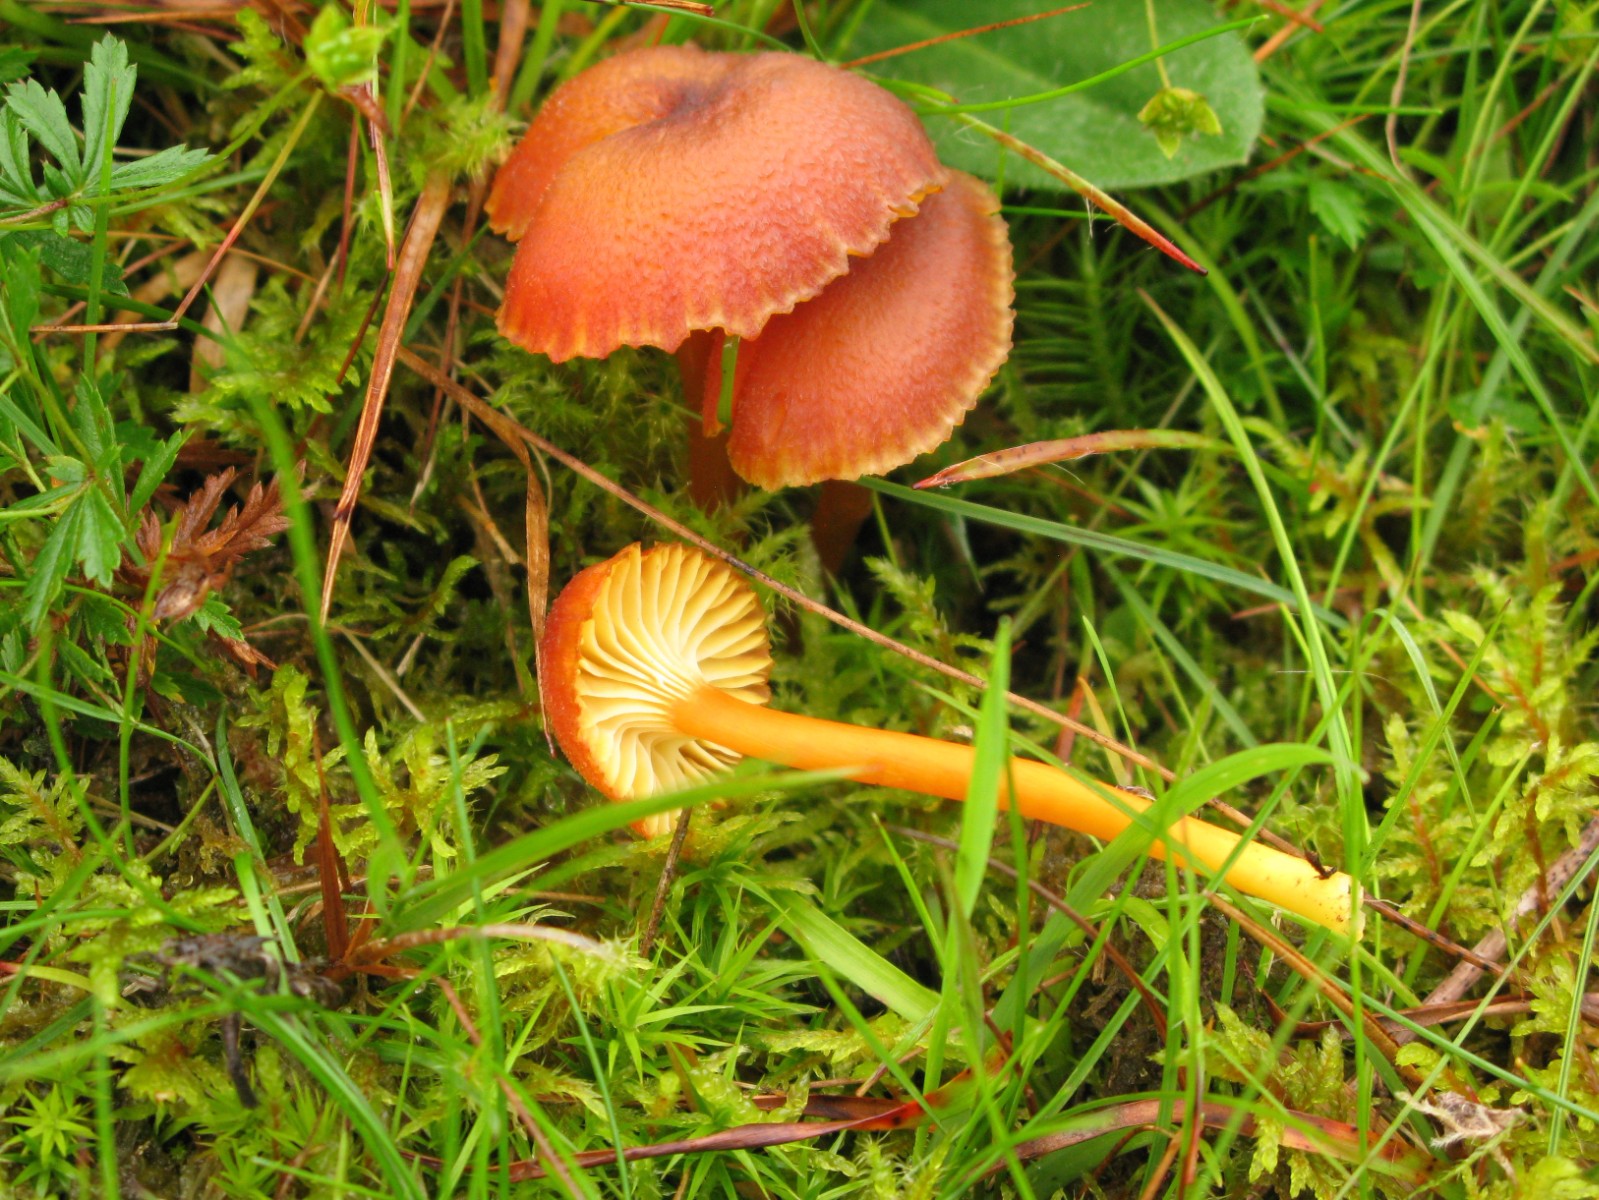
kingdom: Fungi
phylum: Basidiomycota
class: Agaricomycetes
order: Agaricales
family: Hygrophoraceae
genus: Hygrocybe
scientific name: Hygrocybe turunda
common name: sortskællet vokshat
